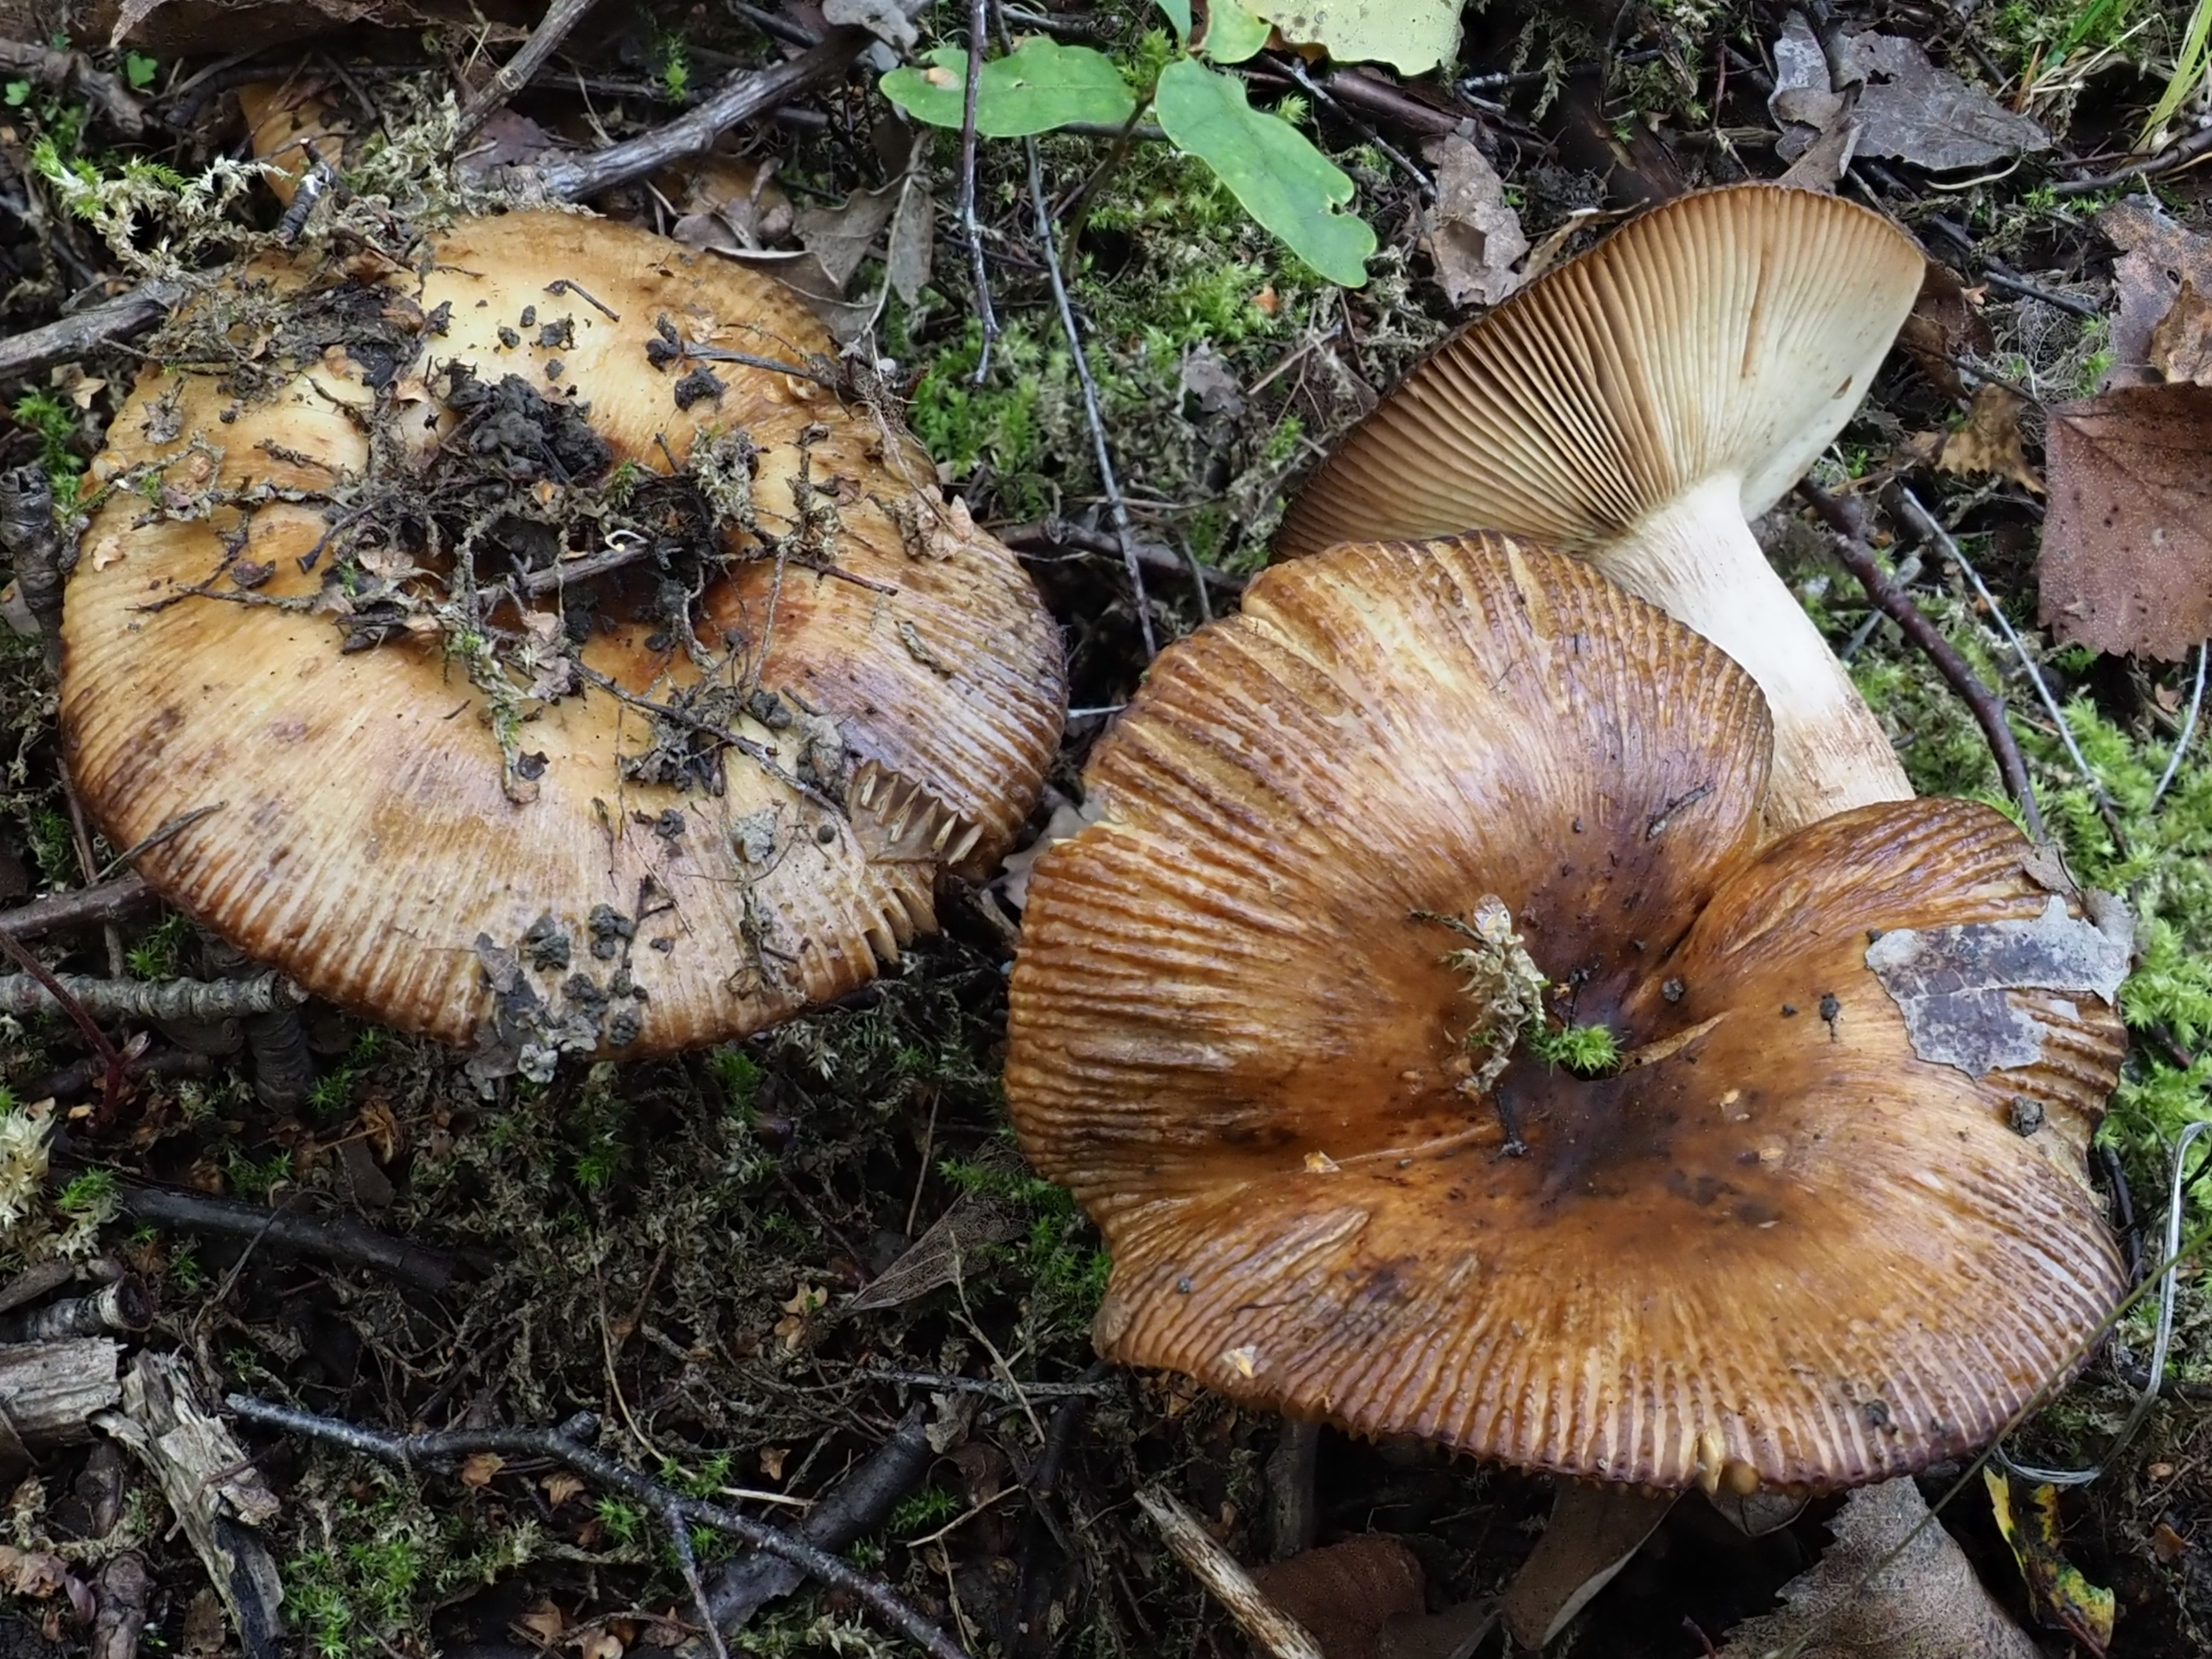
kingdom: Fungi
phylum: Basidiomycota
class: Agaricomycetes
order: Russulales
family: Russulaceae
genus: Russula
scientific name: Russula foetens
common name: Foetid russula
